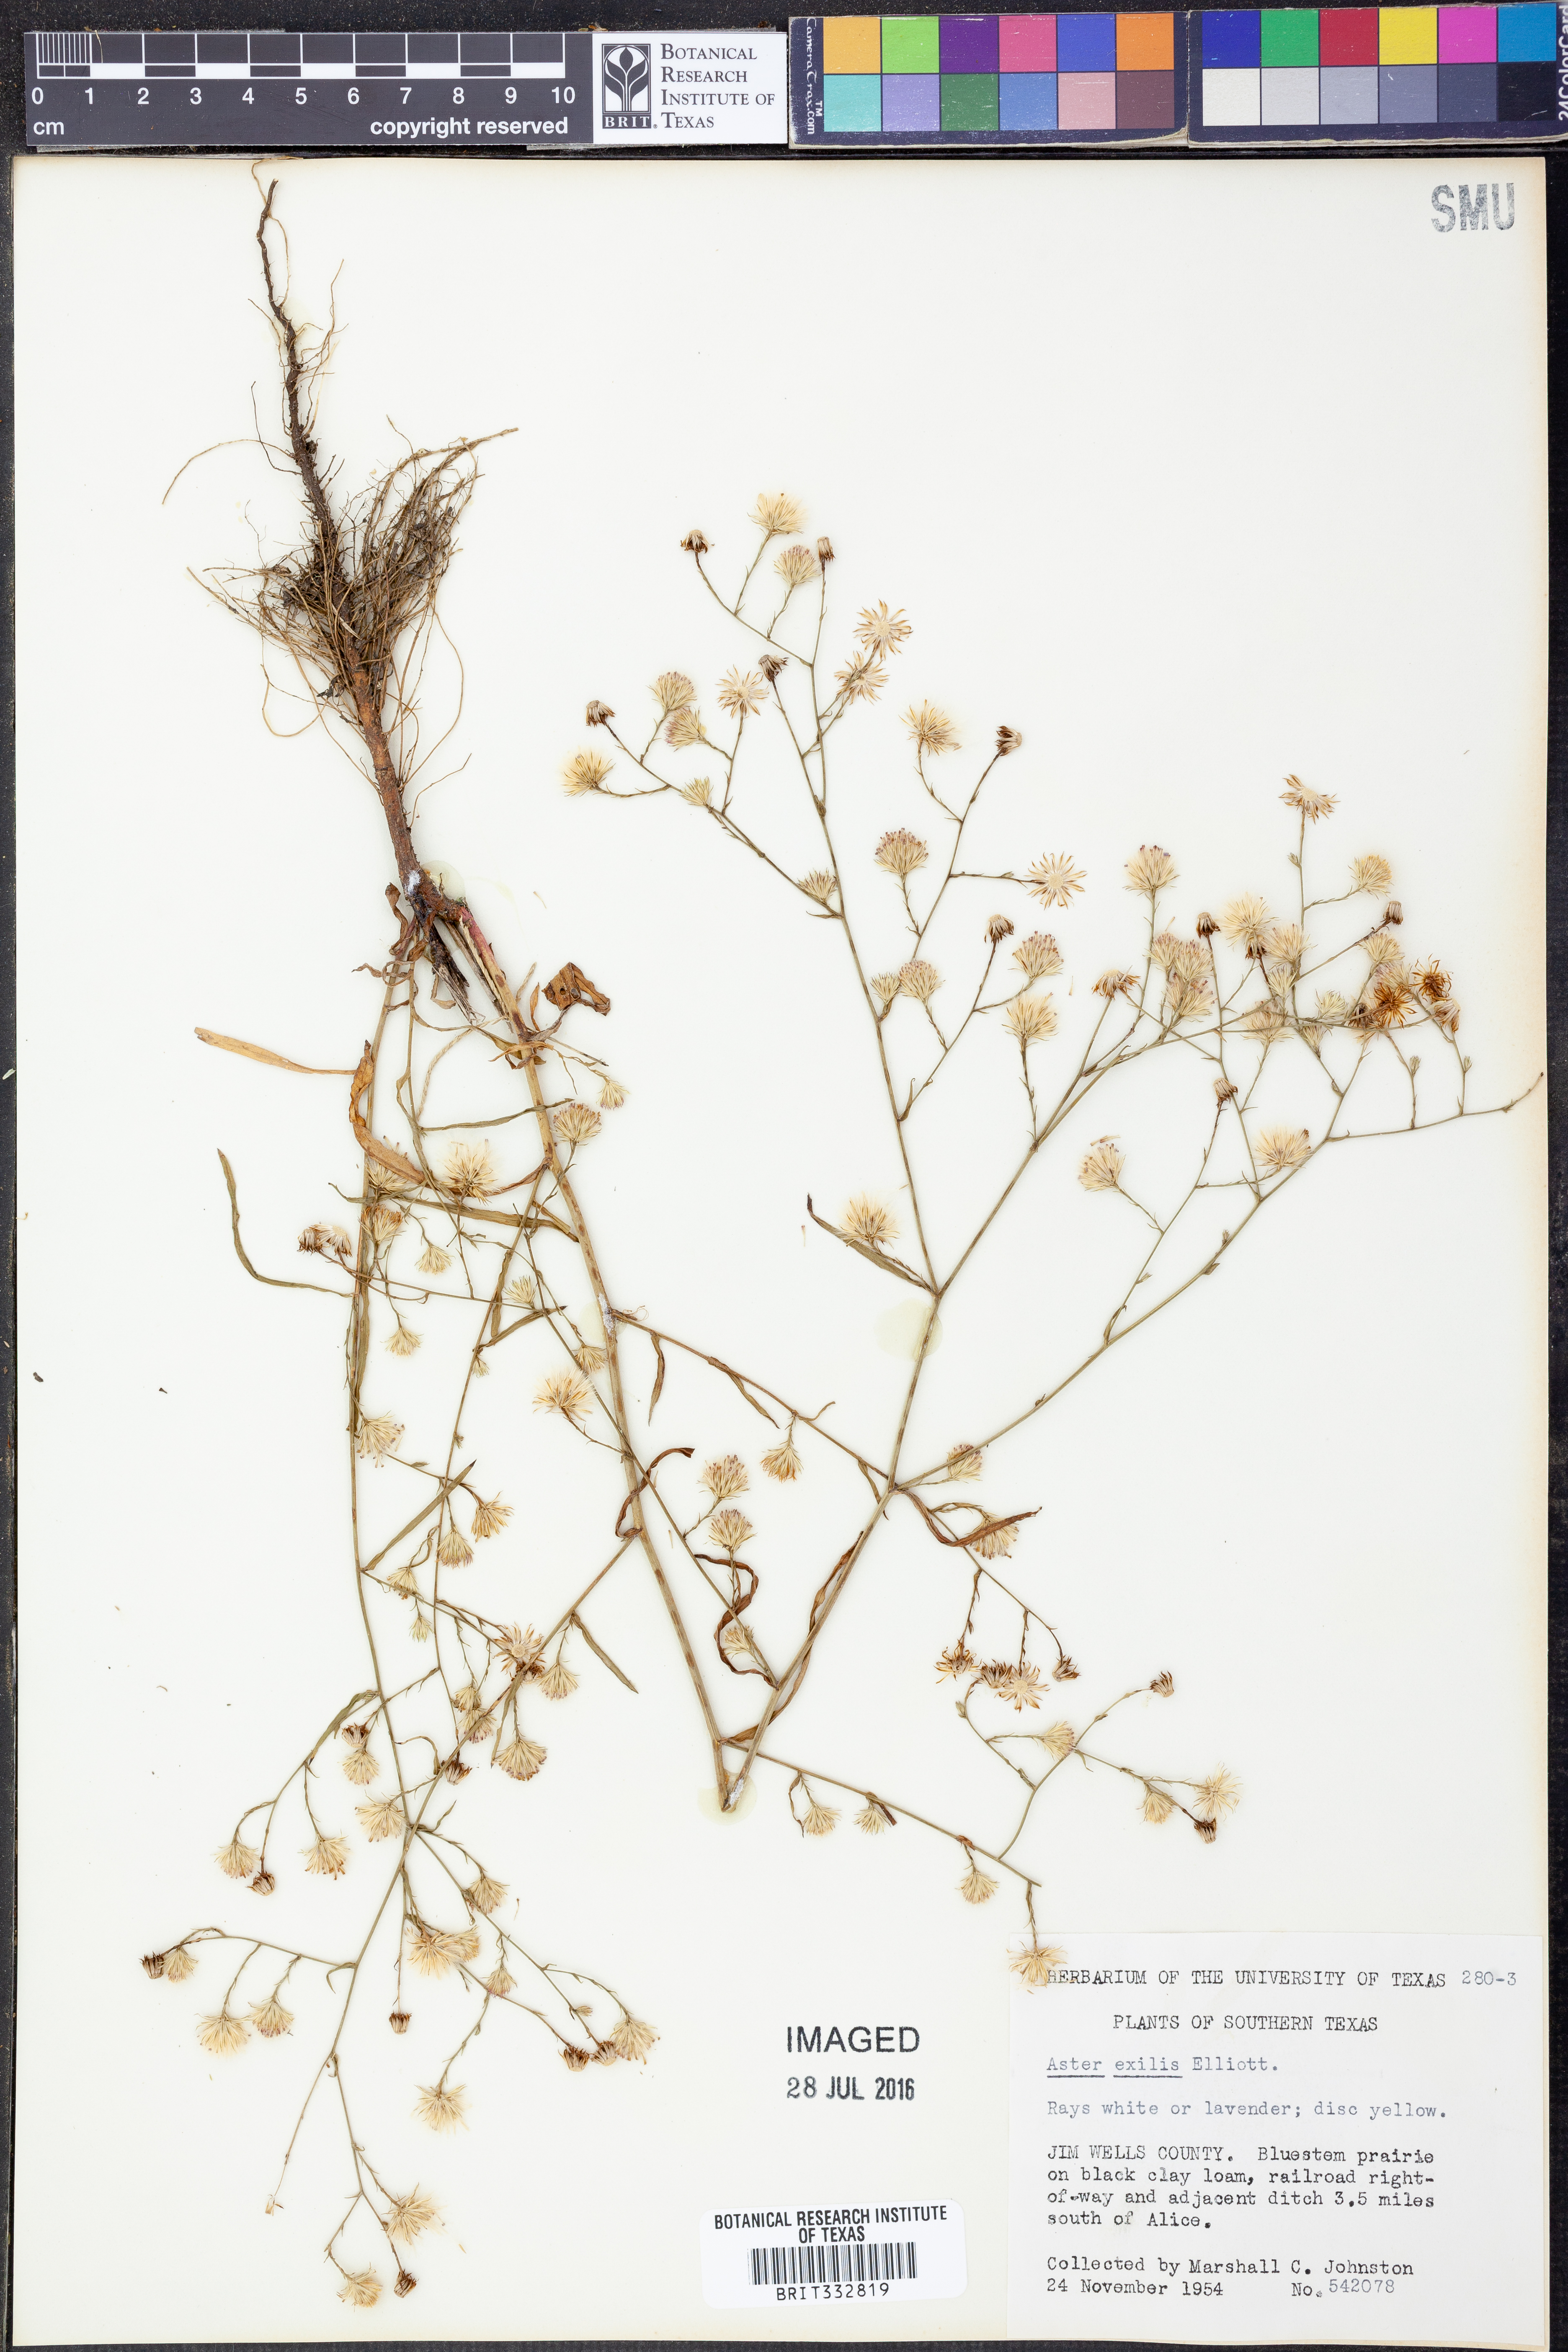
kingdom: Plantae
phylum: Tracheophyta
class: Magnoliopsida
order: Asterales
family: Asteraceae
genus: Symphyotrichum
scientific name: Symphyotrichum expansum
